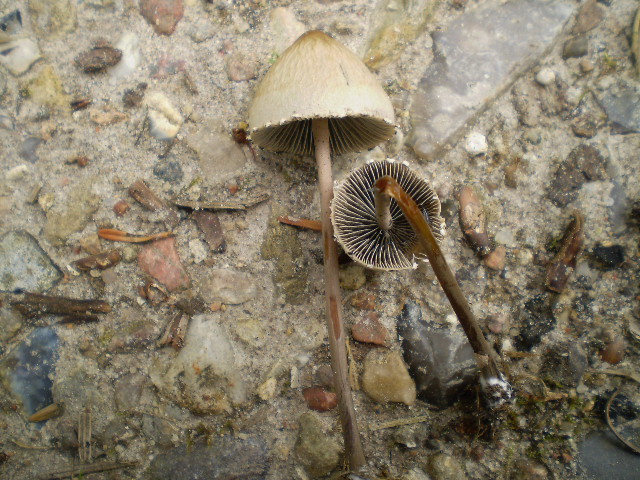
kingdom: Fungi
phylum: Basidiomycota
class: Agaricomycetes
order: Agaricales
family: Bolbitiaceae
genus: Panaeolus
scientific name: Panaeolus papilionaceus
